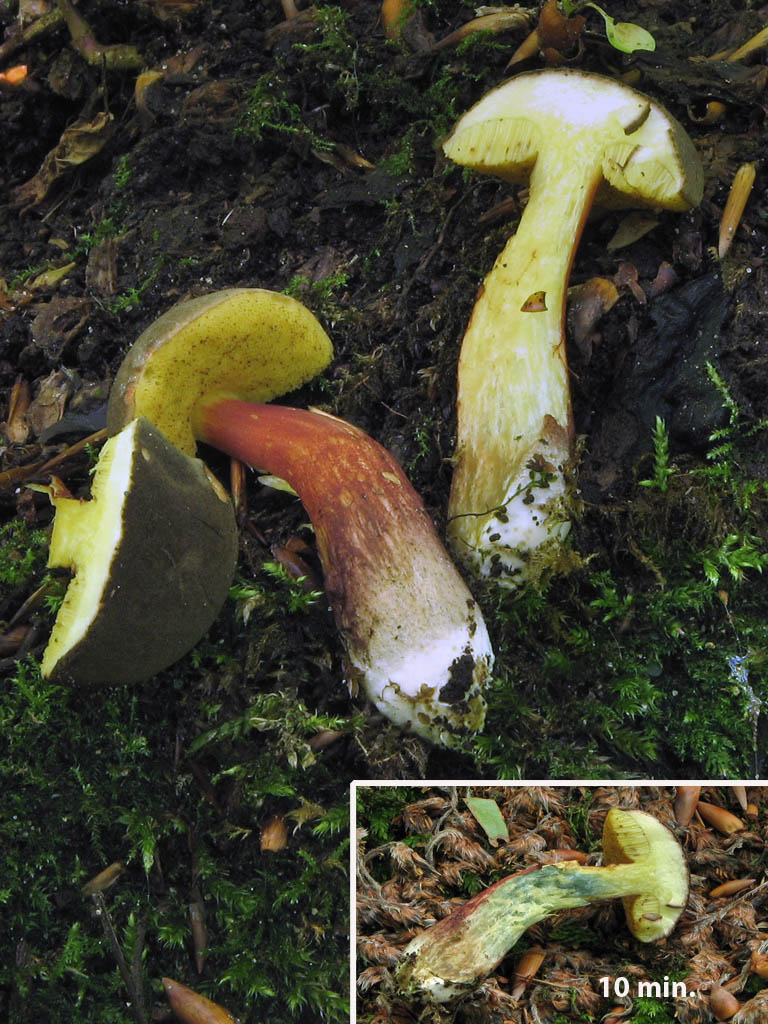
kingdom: Fungi
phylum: Basidiomycota
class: Agaricomycetes
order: Boletales
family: Boletaceae
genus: Xerocomellus
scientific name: Xerocomellus cisalpinus
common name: finsprukken rørhat
